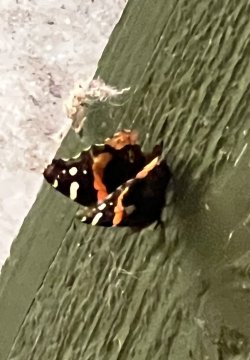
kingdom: Animalia
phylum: Arthropoda
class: Insecta
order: Lepidoptera
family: Nymphalidae
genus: Vanessa
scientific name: Vanessa atalanta
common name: Red Admiral
